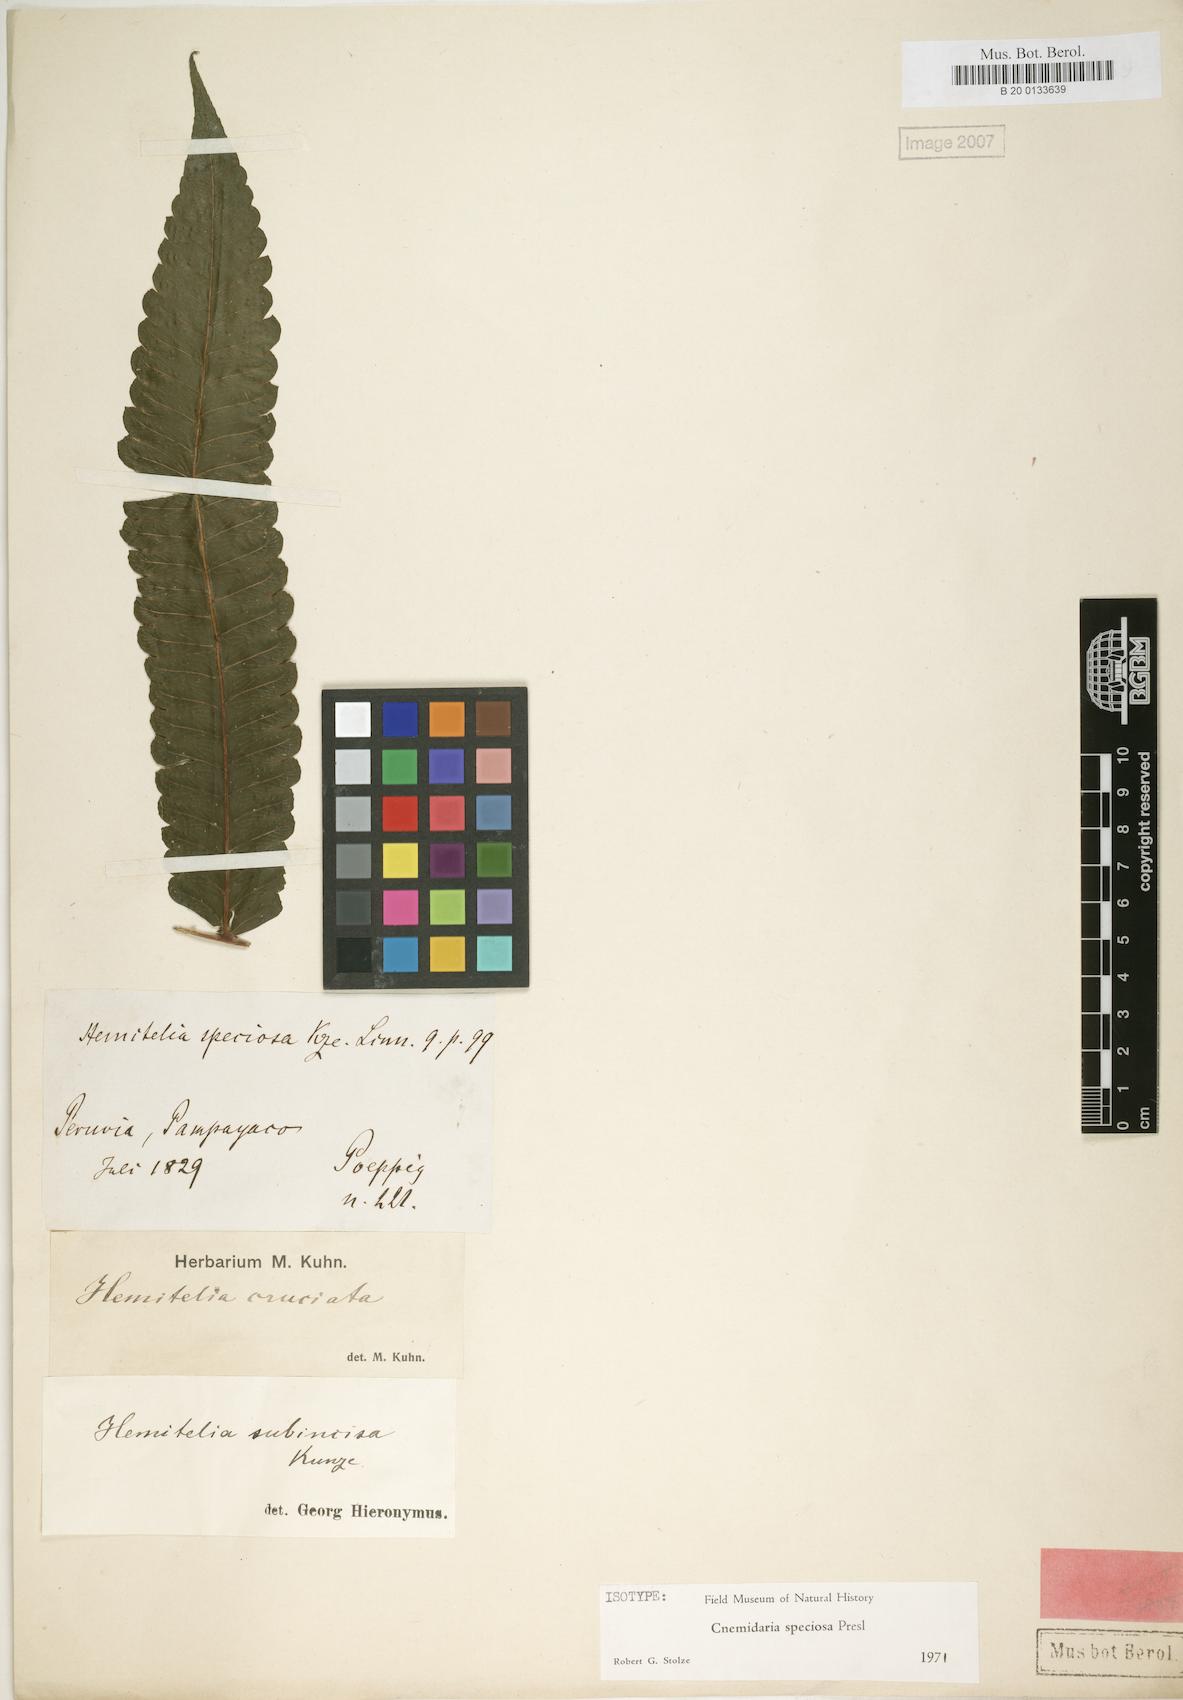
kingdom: Plantae
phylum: Tracheophyta
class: Polypodiopsida
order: Cyatheales
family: Cyatheaceae
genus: Cyathea
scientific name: Cyathea subincisa
